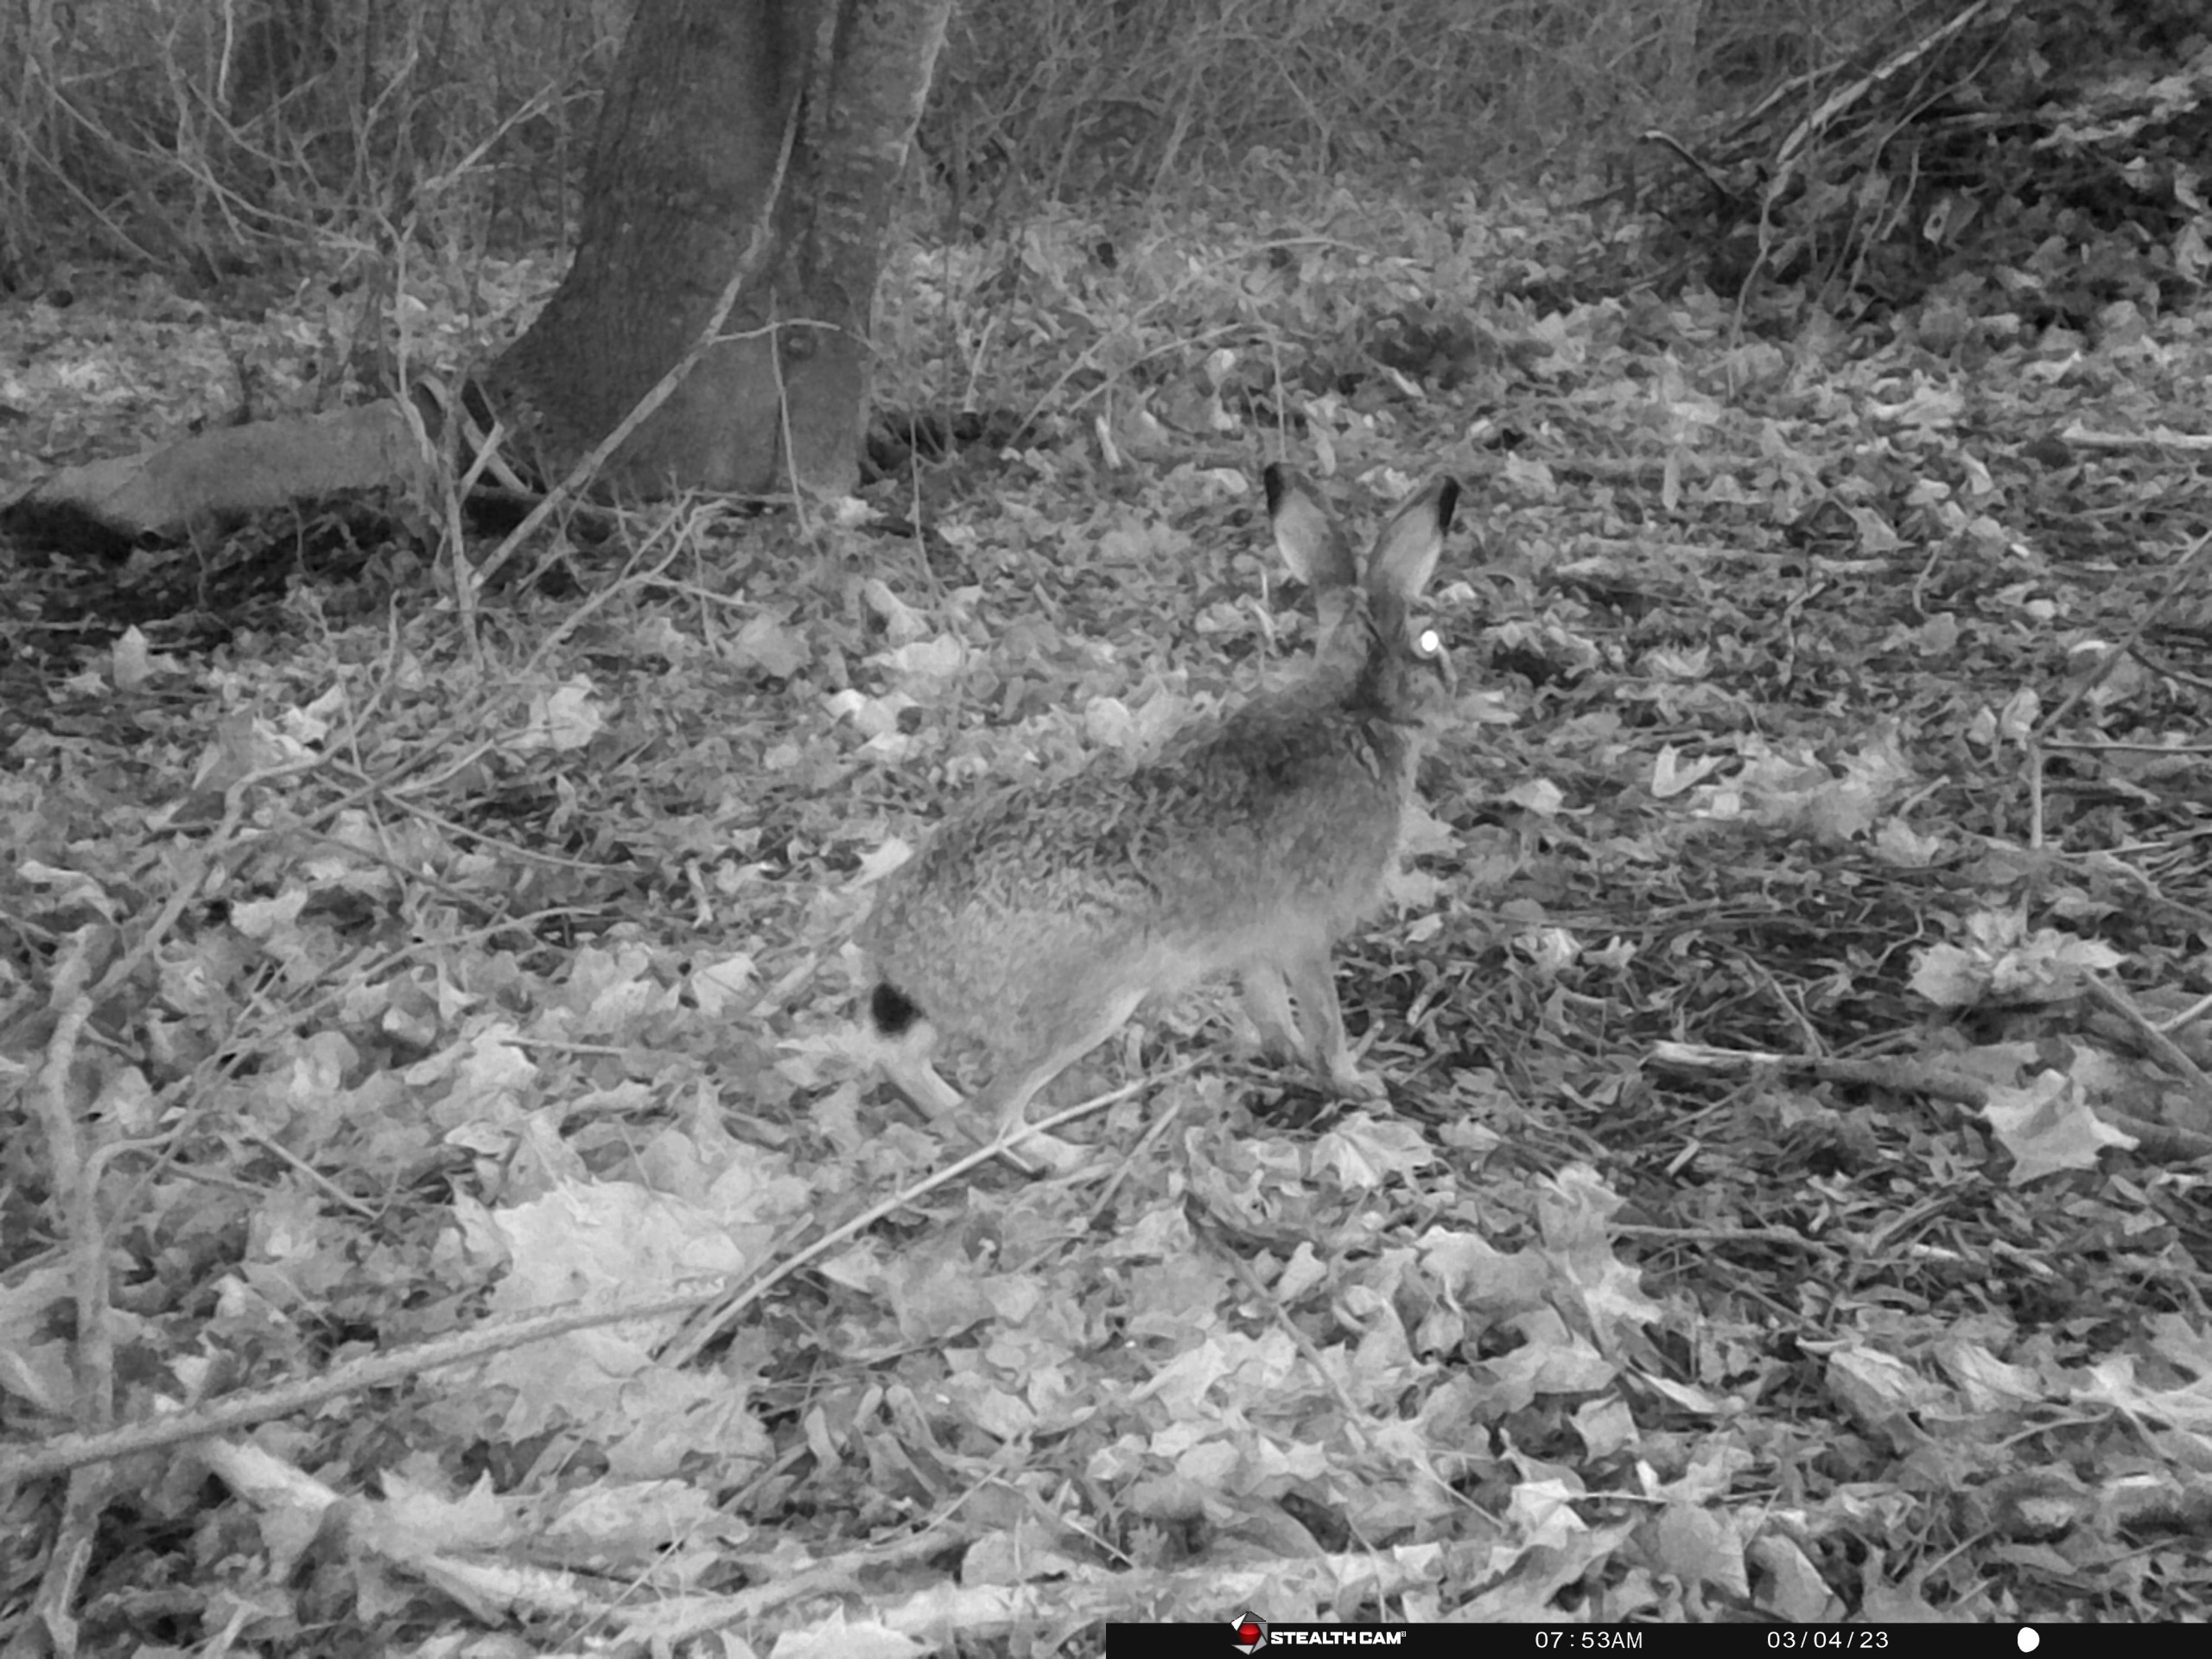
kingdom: Animalia
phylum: Chordata
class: Mammalia
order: Lagomorpha
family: Leporidae
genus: Lepus
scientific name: Lepus europaeus
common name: Hare
